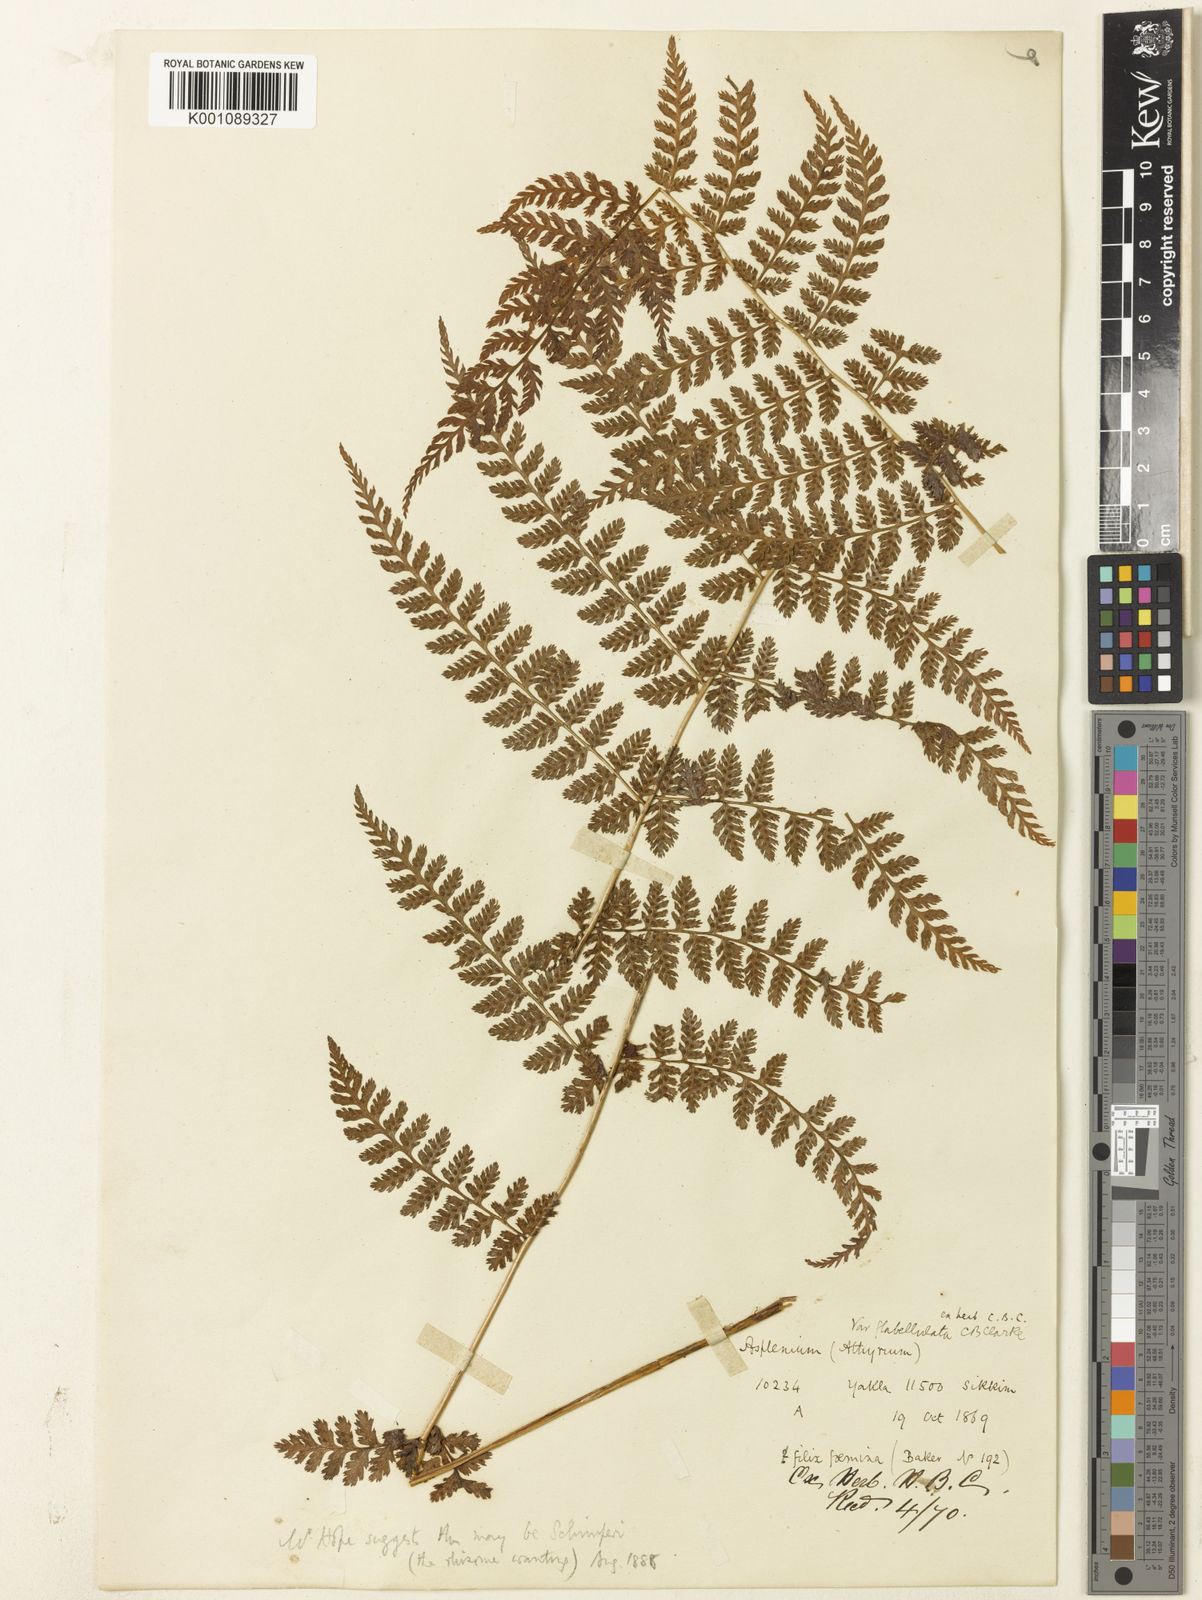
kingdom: Plantae
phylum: Tracheophyta
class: Polypodiopsida
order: Polypodiales
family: Athyriaceae
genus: Athyrium
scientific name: Athyrium nigripes
